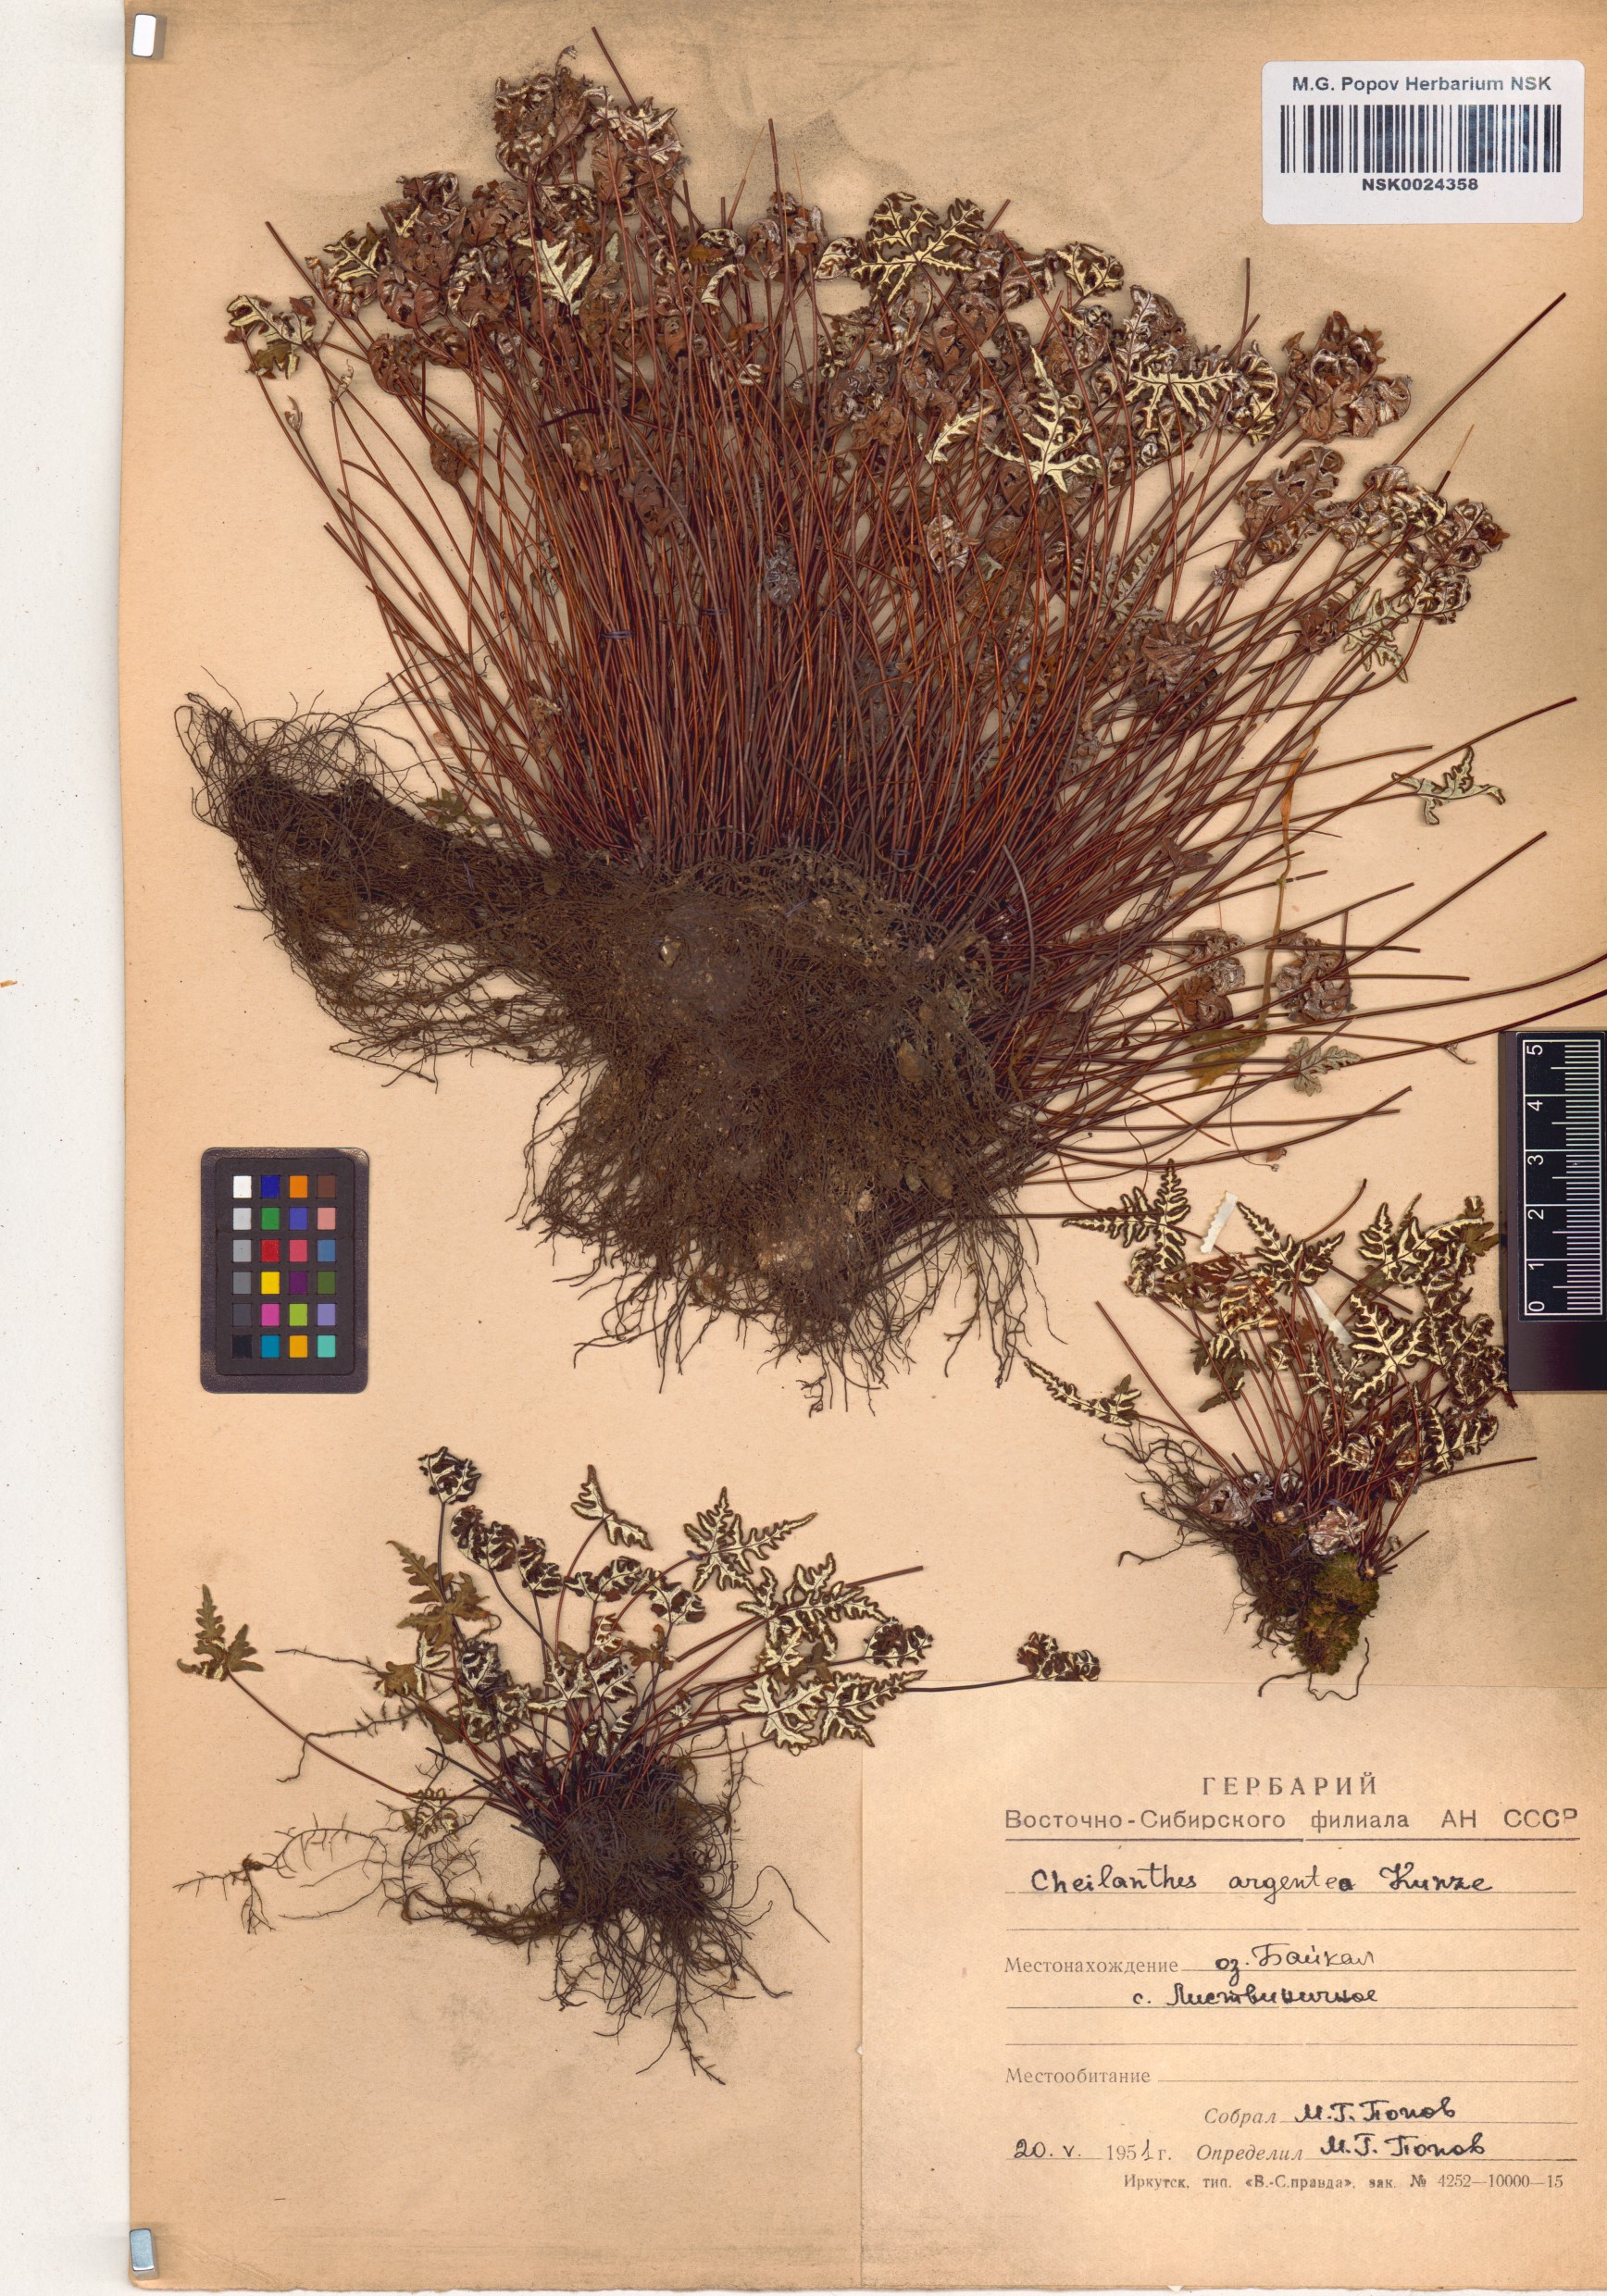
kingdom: Plantae
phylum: Tracheophyta
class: Polypodiopsida
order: Polypodiales
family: Pteridaceae
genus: Aleuritopteris
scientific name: Aleuritopteris argentea
